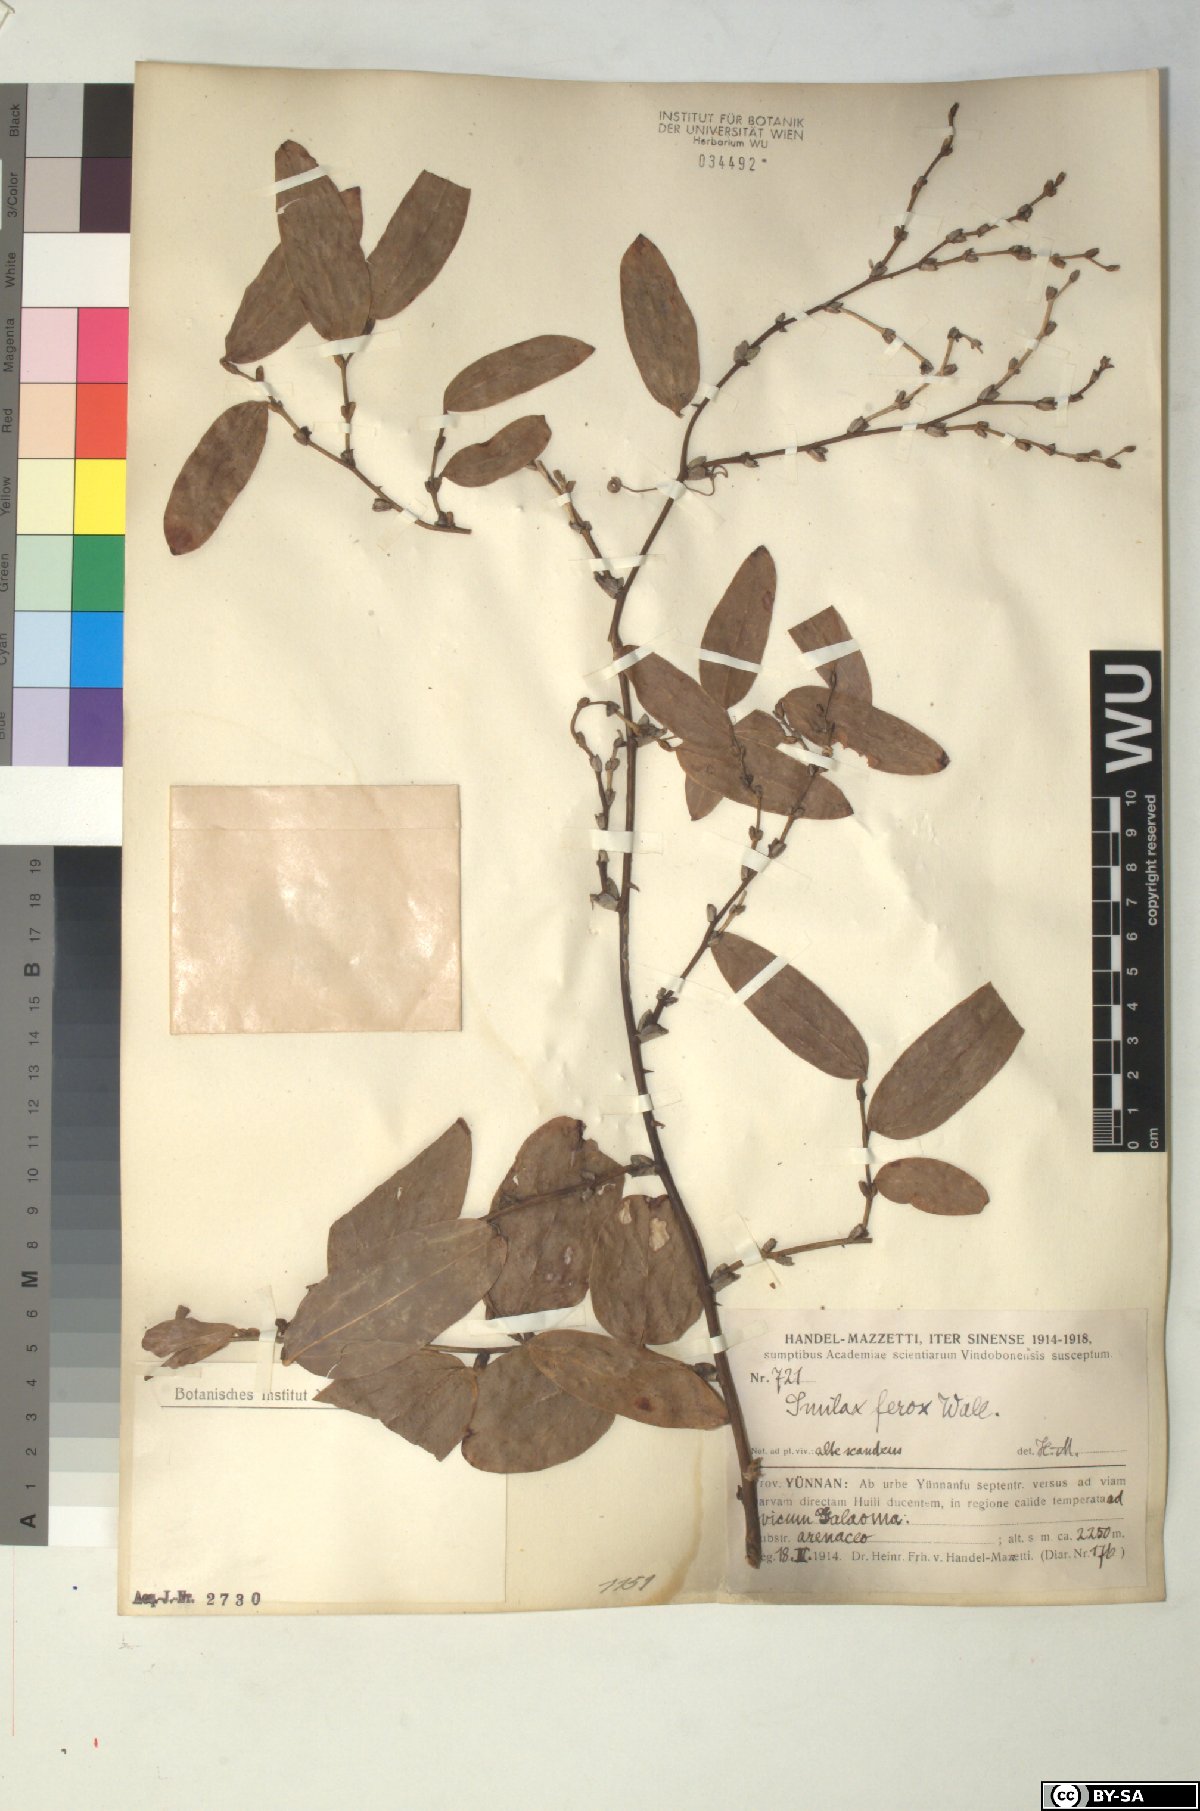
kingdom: Plantae
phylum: Tracheophyta
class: Liliopsida
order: Liliales
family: Smilacaceae
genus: Smilax
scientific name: Smilax ferox
